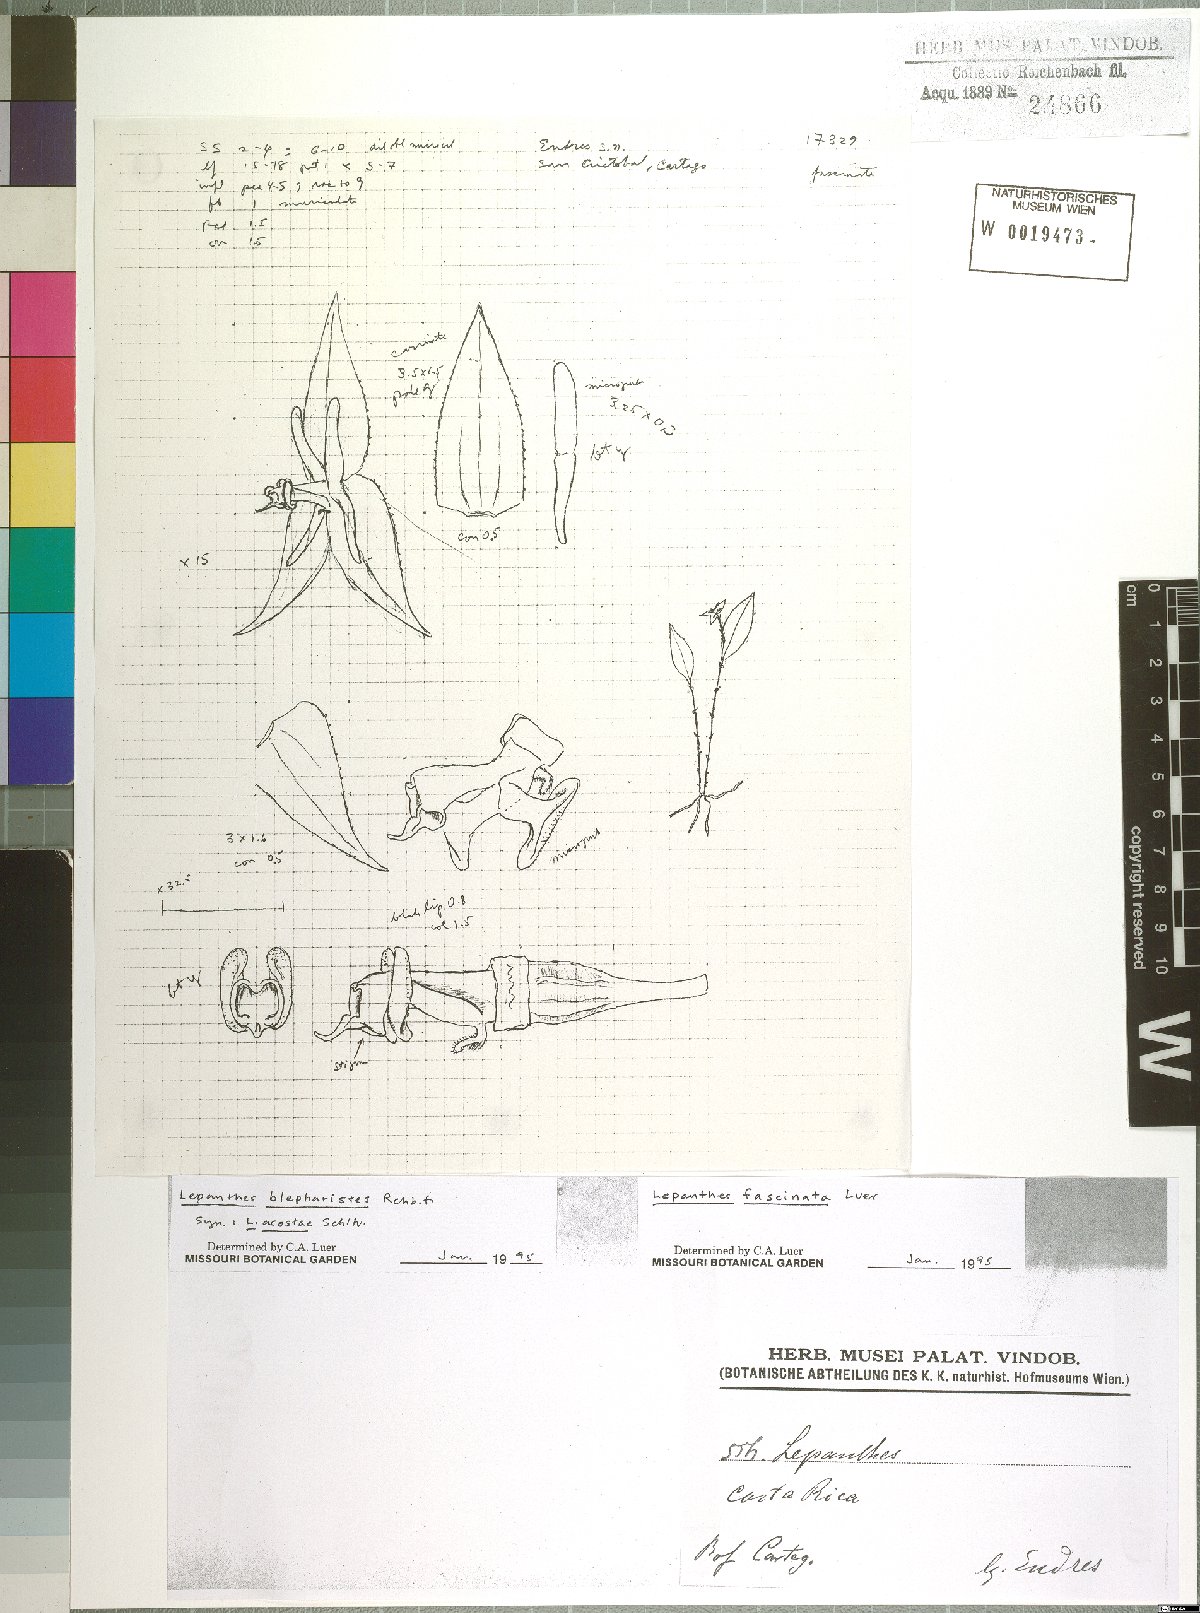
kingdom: Plantae
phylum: Tracheophyta
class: Liliopsida
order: Asparagales
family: Orchidaceae
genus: Lepanthes
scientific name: Lepanthes fascinata
